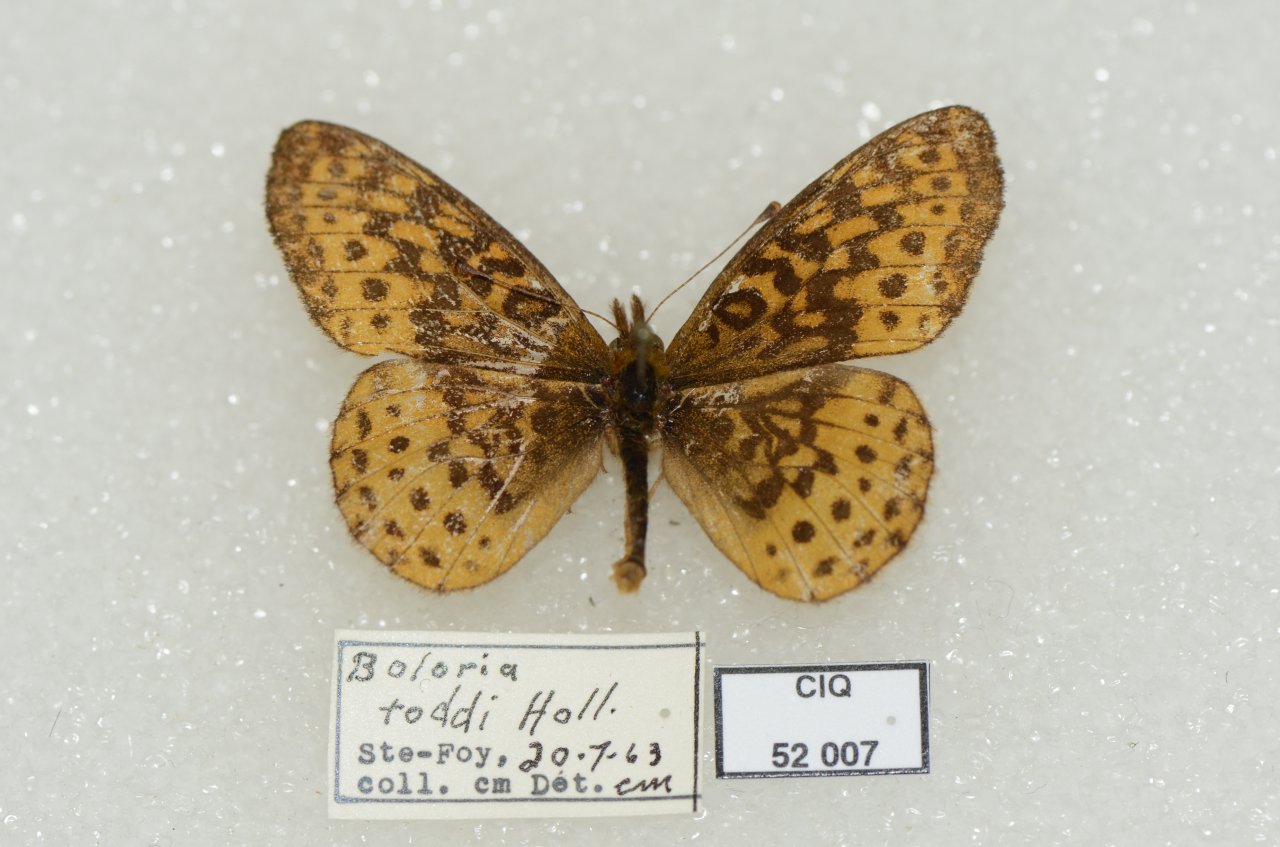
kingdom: Animalia
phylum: Arthropoda
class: Insecta
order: Lepidoptera
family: Nymphalidae
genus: Clossiana
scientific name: Clossiana toddi
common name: Meadow Fritillary
